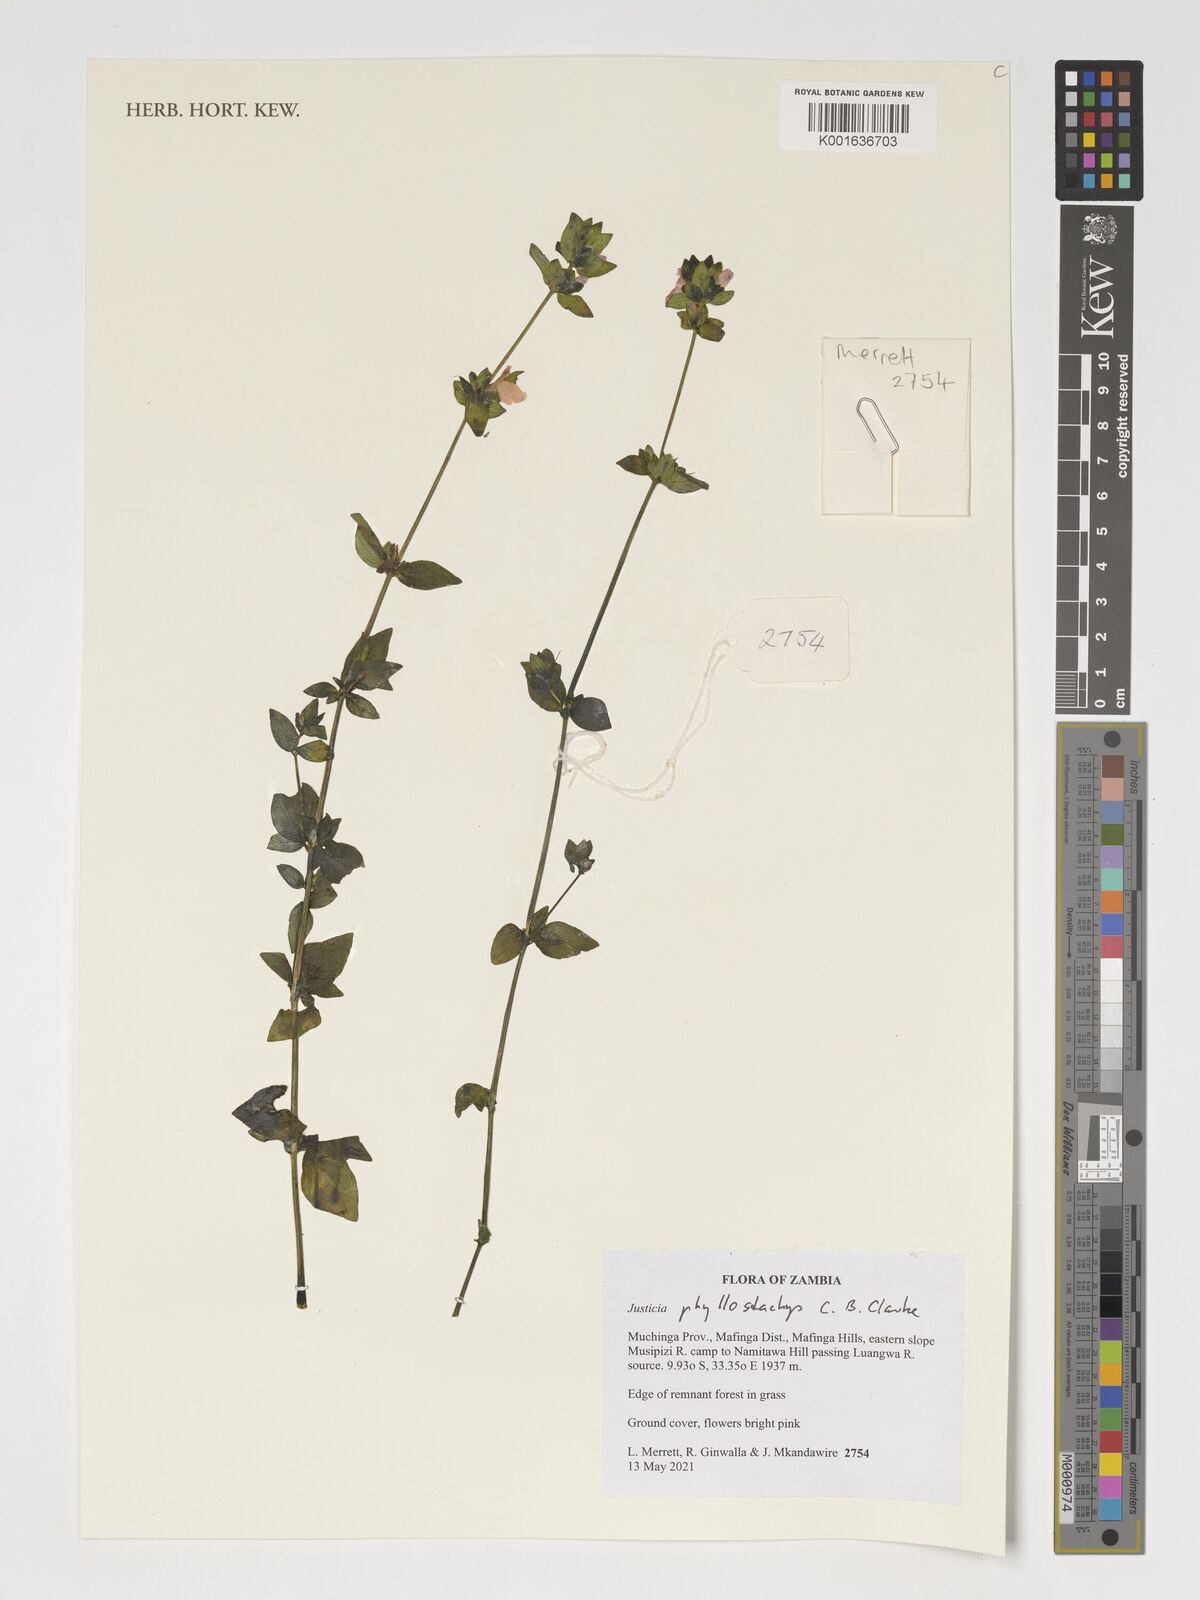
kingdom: Plantae
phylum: Tracheophyta
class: Magnoliopsida
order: Lamiales
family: Acanthaceae
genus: Justicia
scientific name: Justicia phyllostachys
